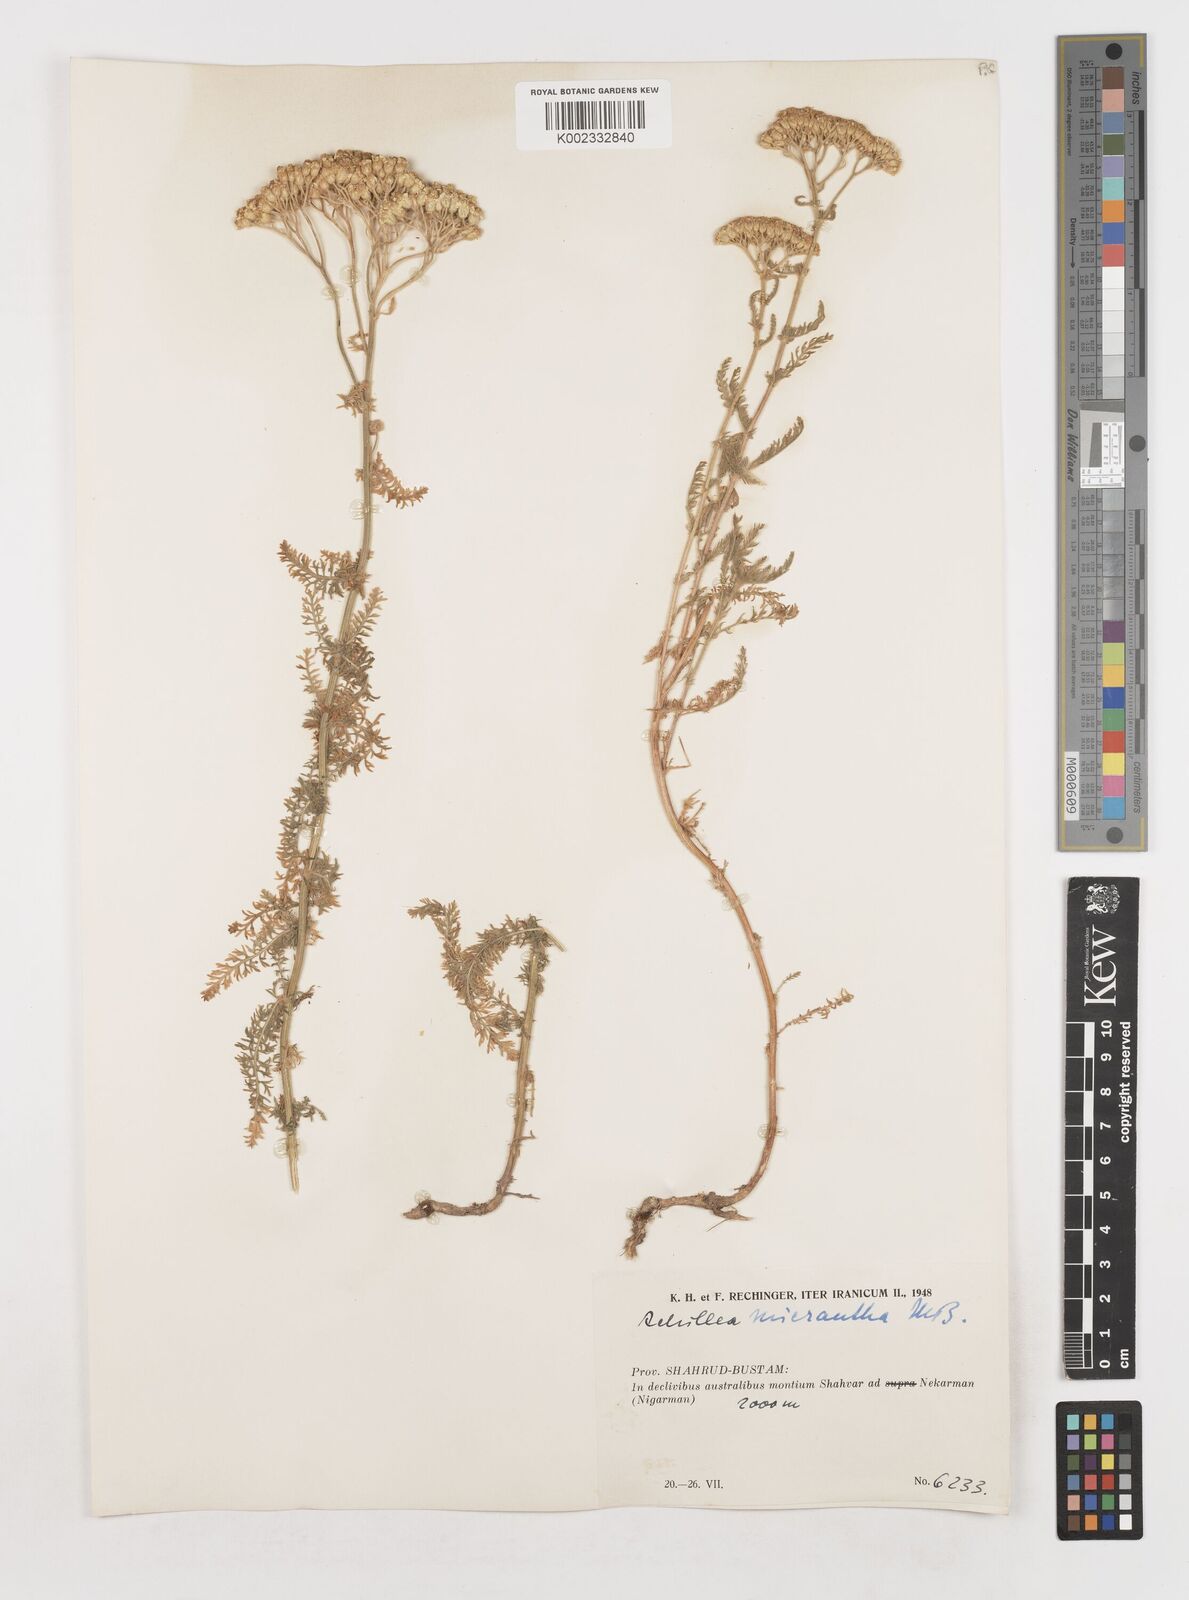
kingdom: Plantae
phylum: Tracheophyta
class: Magnoliopsida
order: Asterales
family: Asteraceae
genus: Achillea
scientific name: Achillea micrantha
